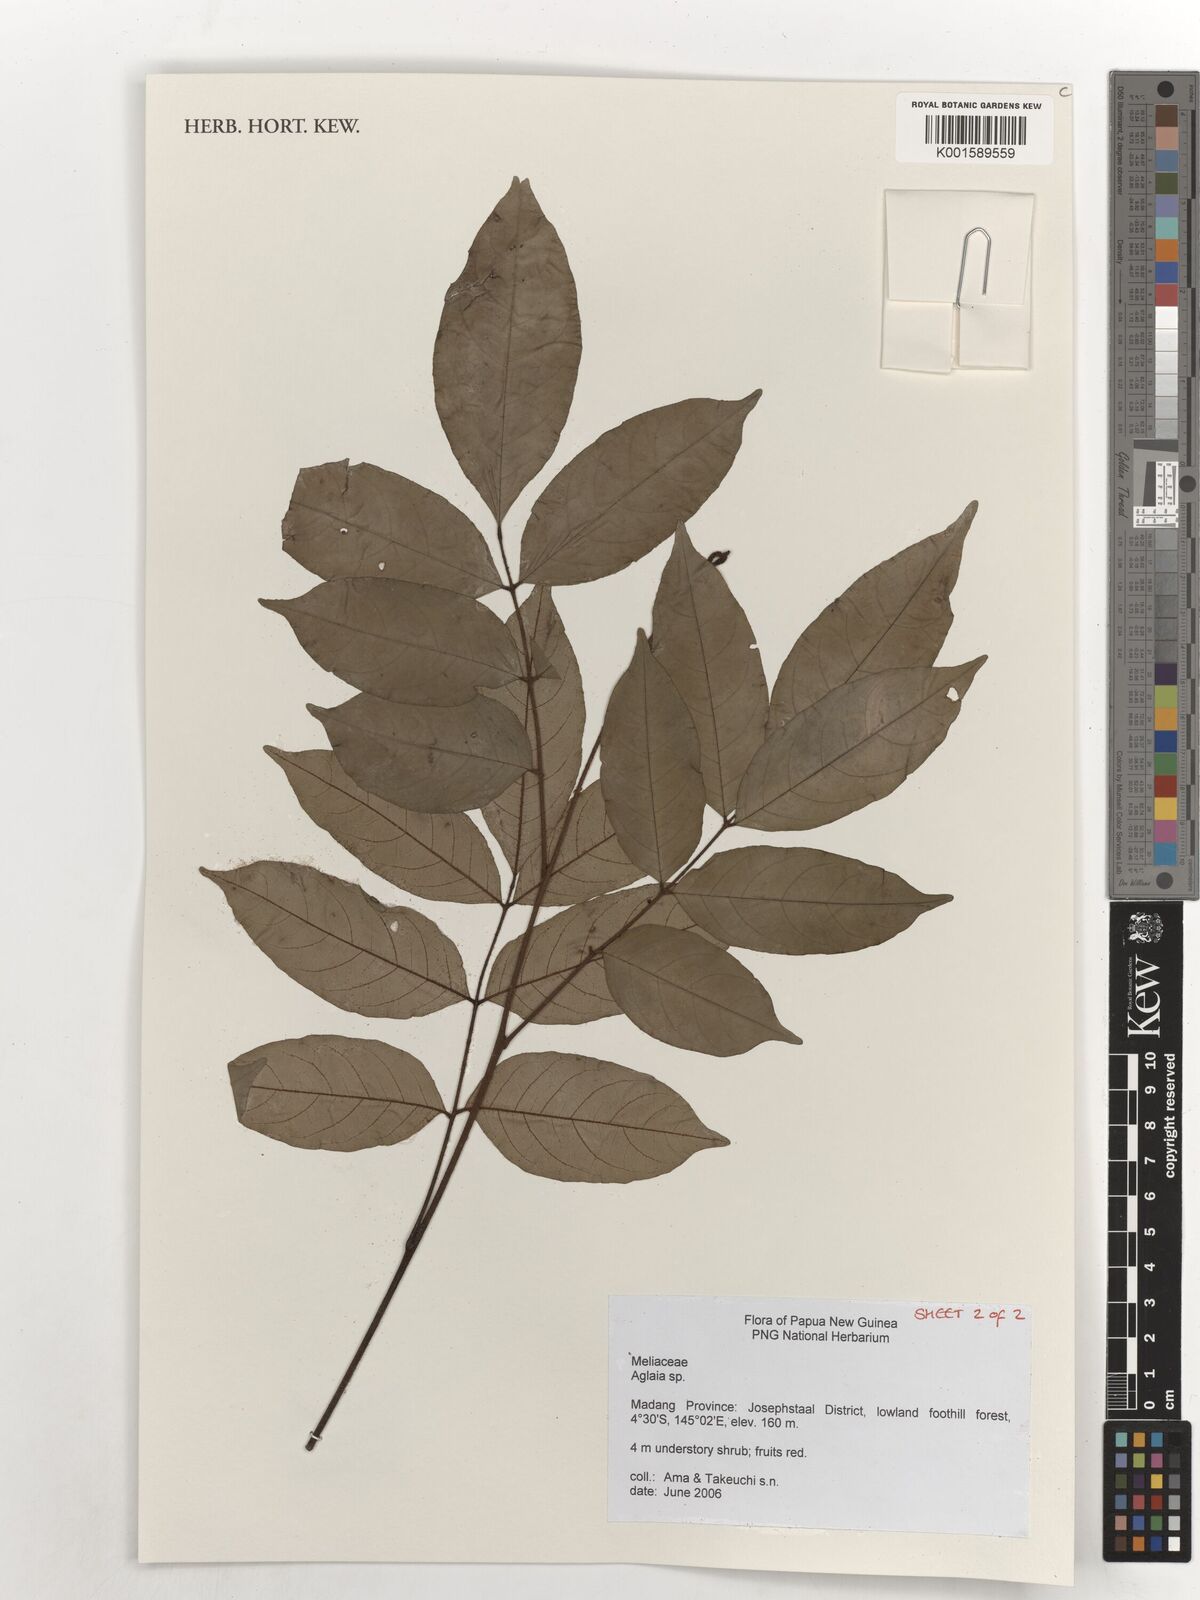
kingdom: Plantae
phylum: Tracheophyta
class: Magnoliopsida
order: Sapindales
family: Meliaceae
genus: Aglaia
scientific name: Aglaia
